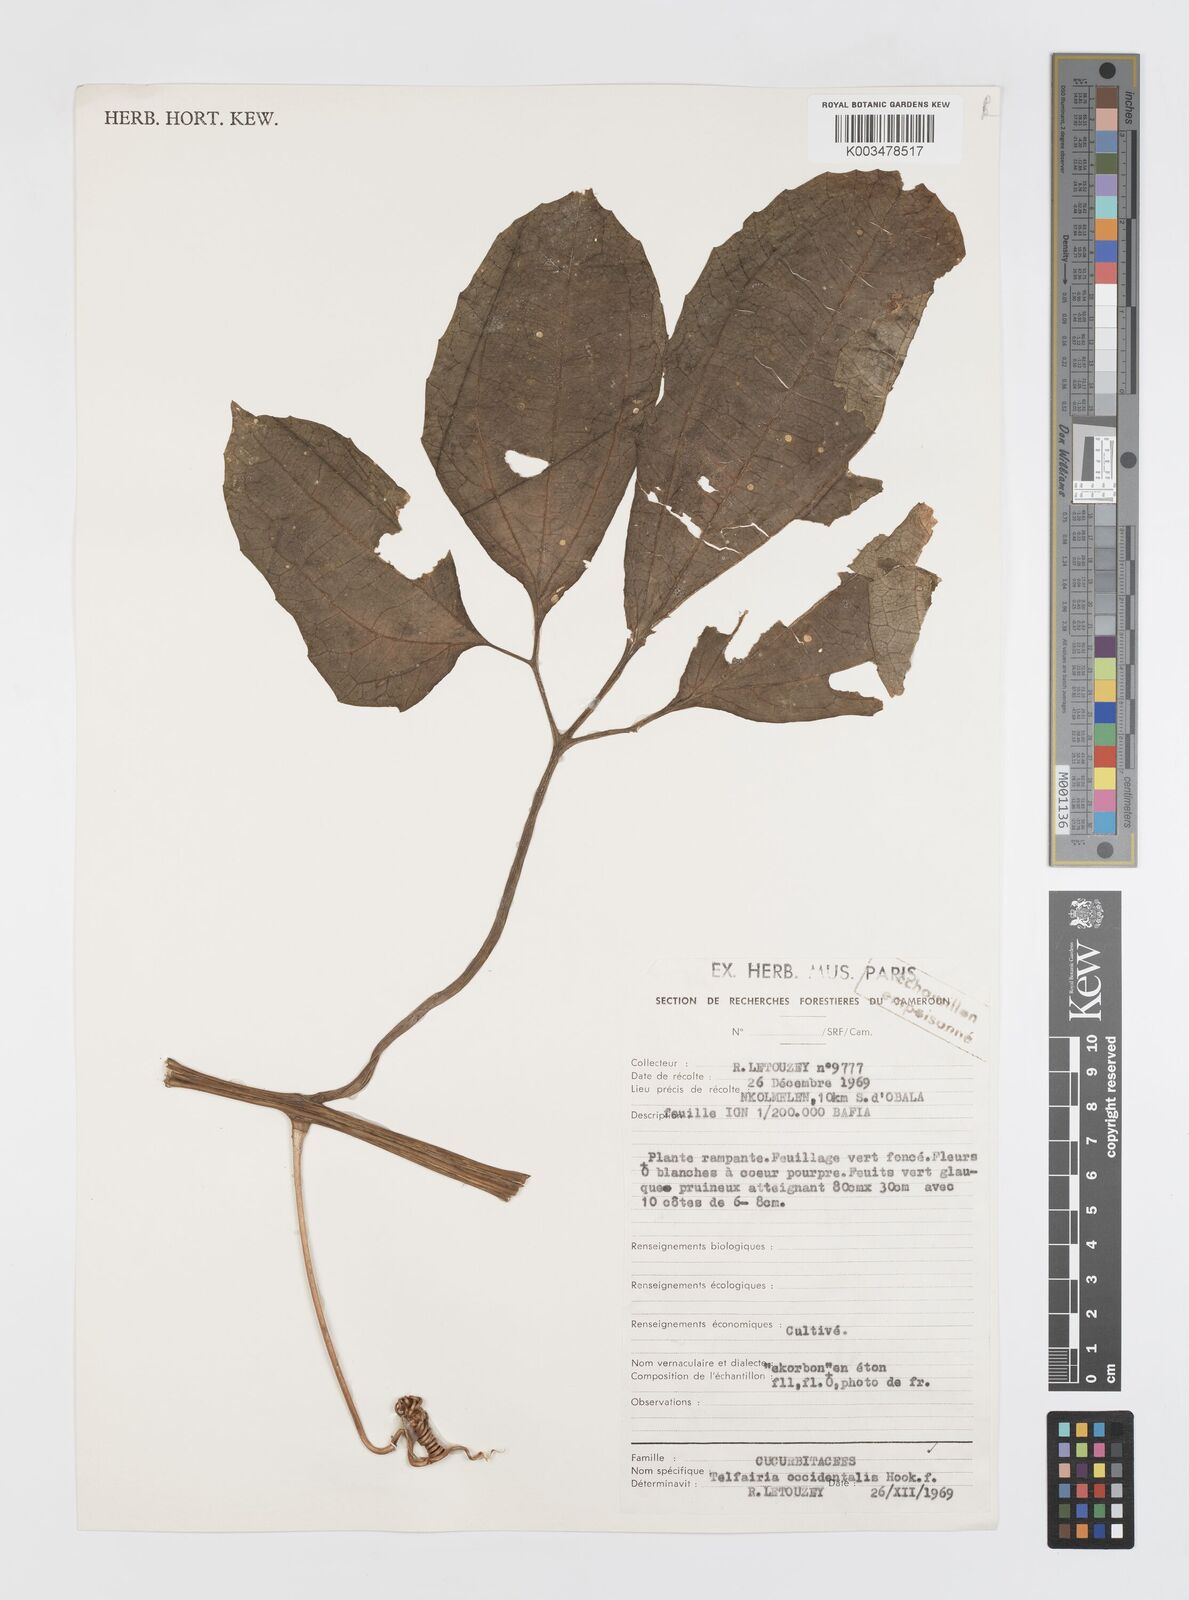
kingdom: Plantae
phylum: Tracheophyta
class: Magnoliopsida
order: Cucurbitales
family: Cucurbitaceae
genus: Telfairia
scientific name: Telfairia occidentalis
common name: Oysternut
